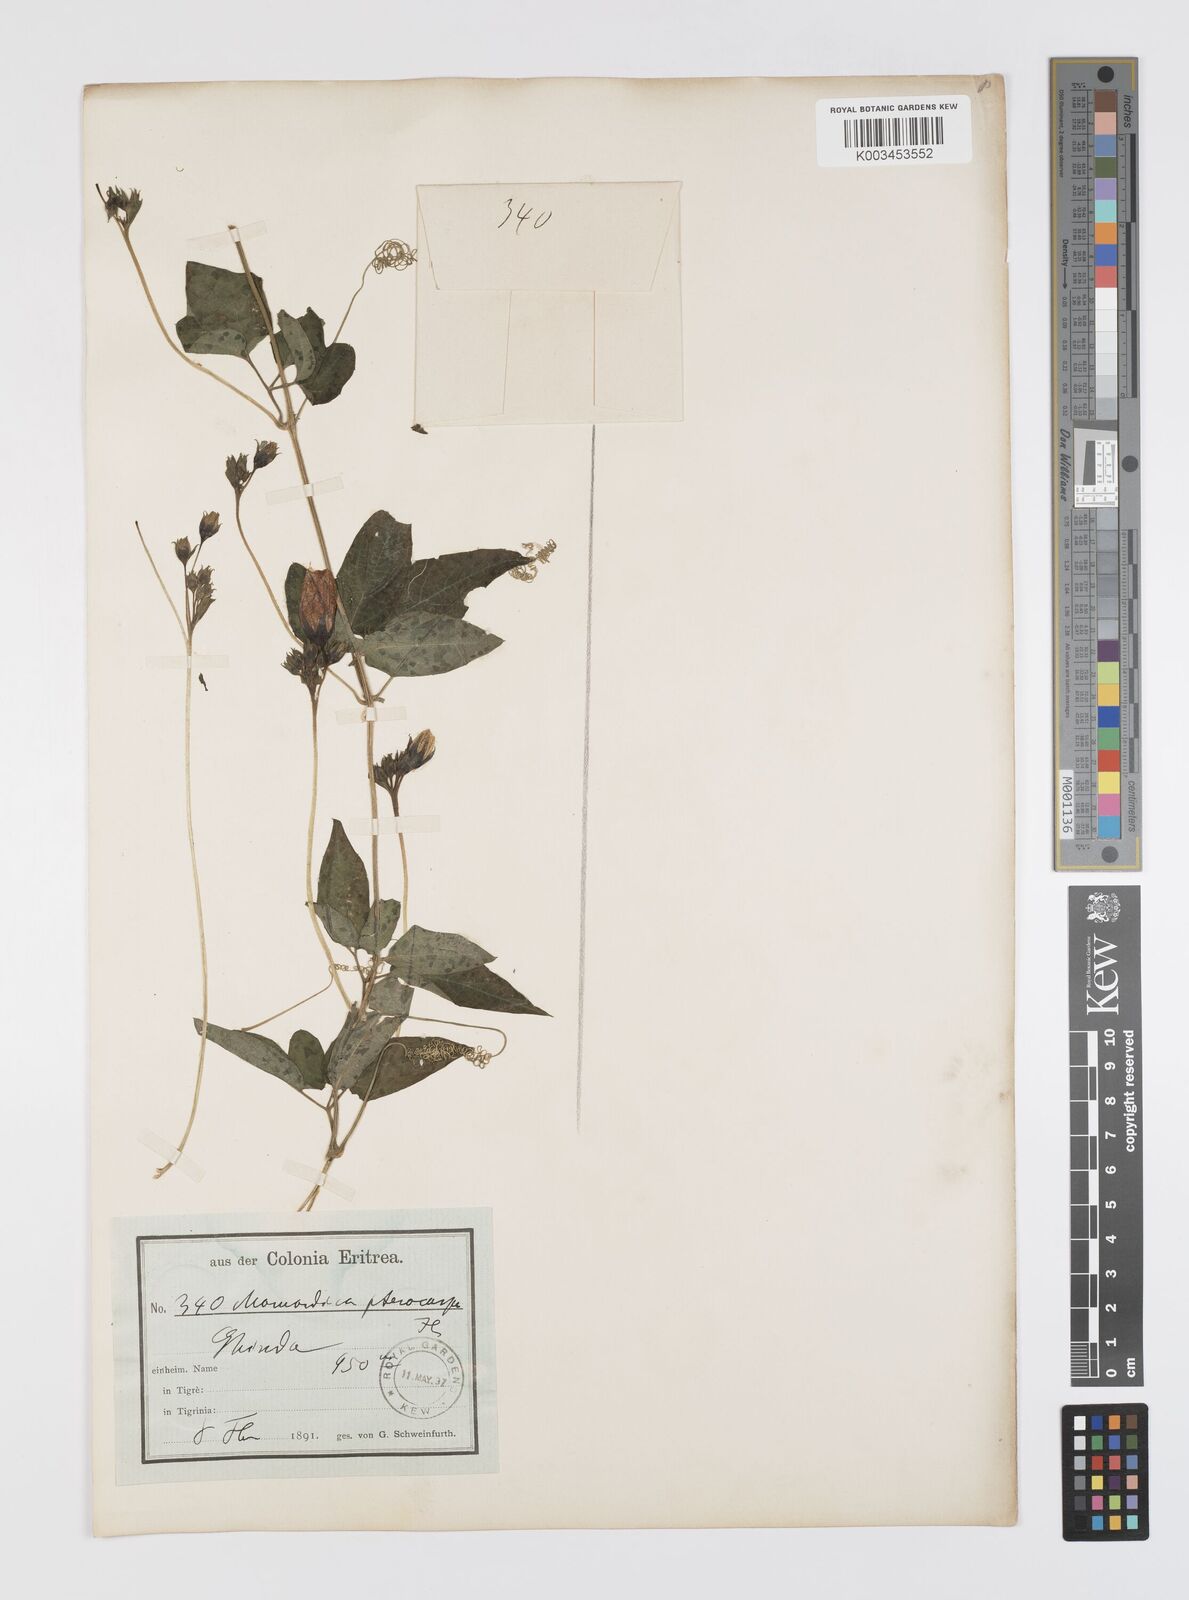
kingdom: Plantae
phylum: Tracheophyta
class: Magnoliopsida
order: Cucurbitales
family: Cucurbitaceae
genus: Momordica
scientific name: Momordica pterocarpa
